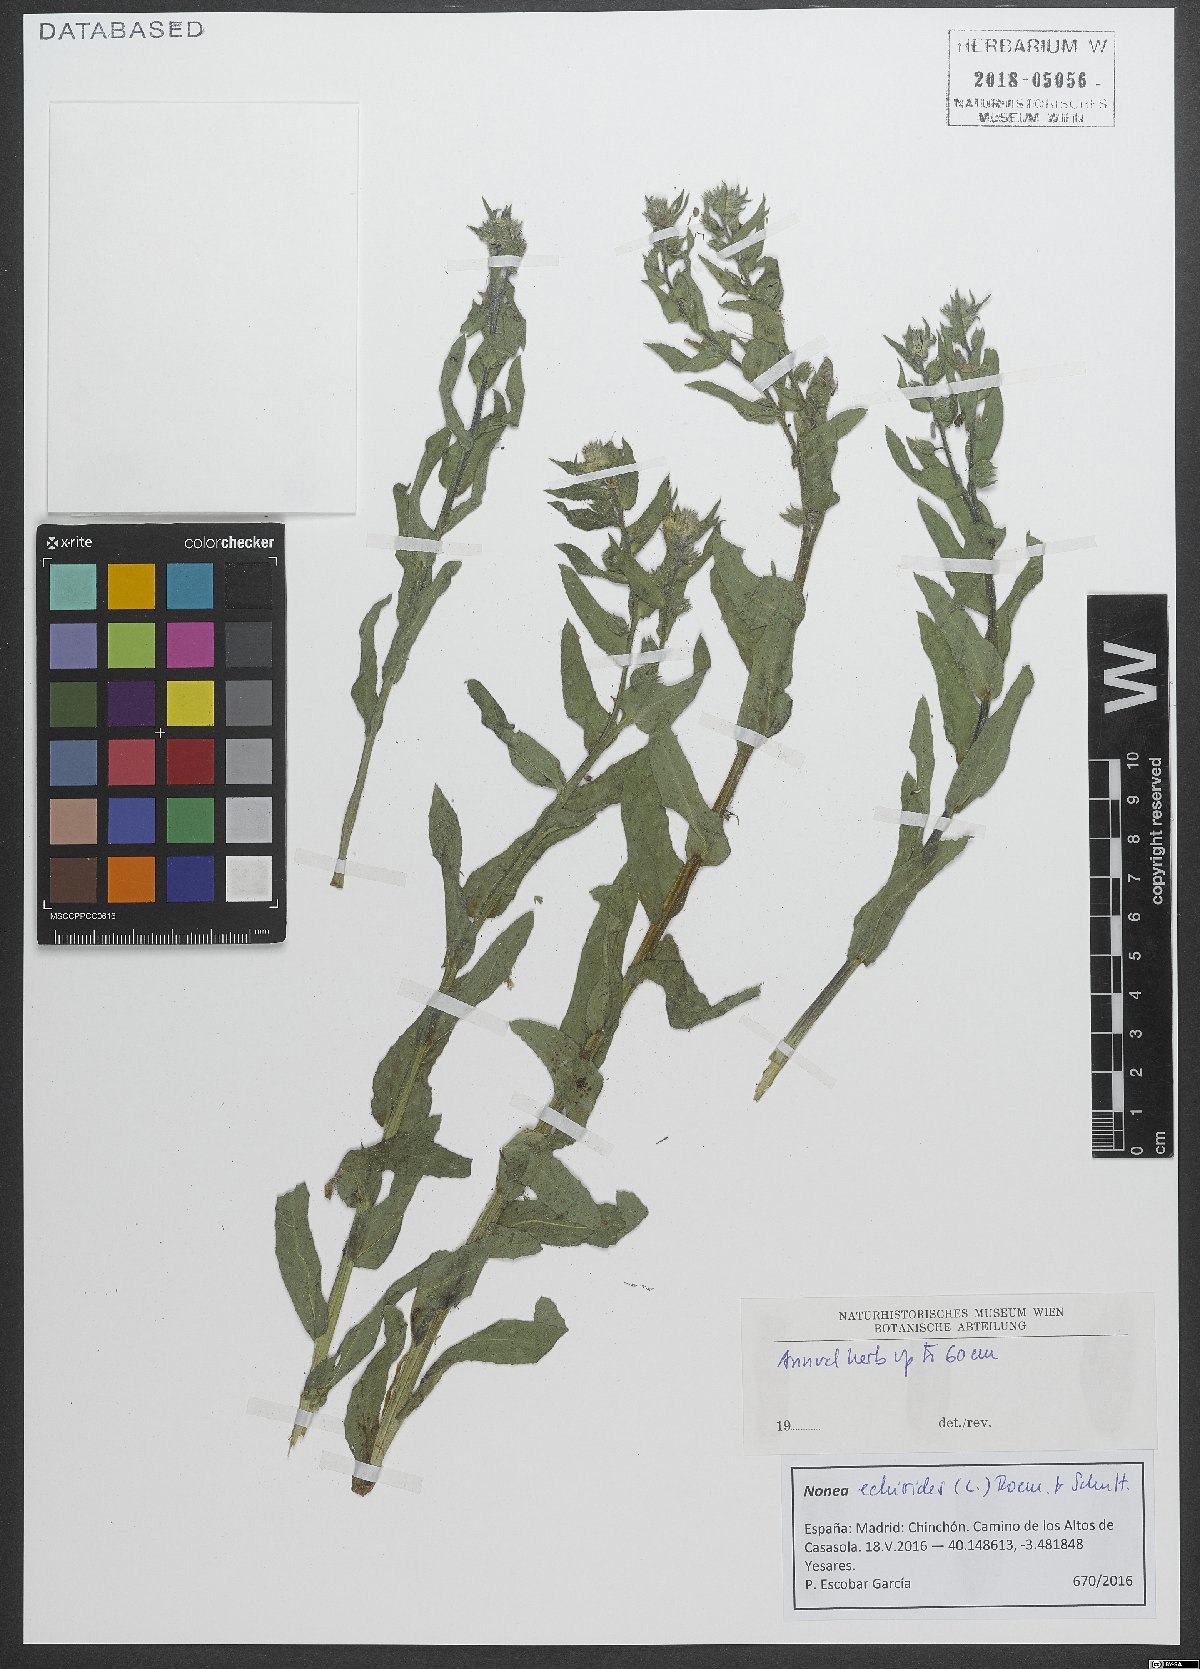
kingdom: Plantae
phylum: Tracheophyta
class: Magnoliopsida
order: Boraginales
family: Boraginaceae
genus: Nonea
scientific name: Nonea echioides
